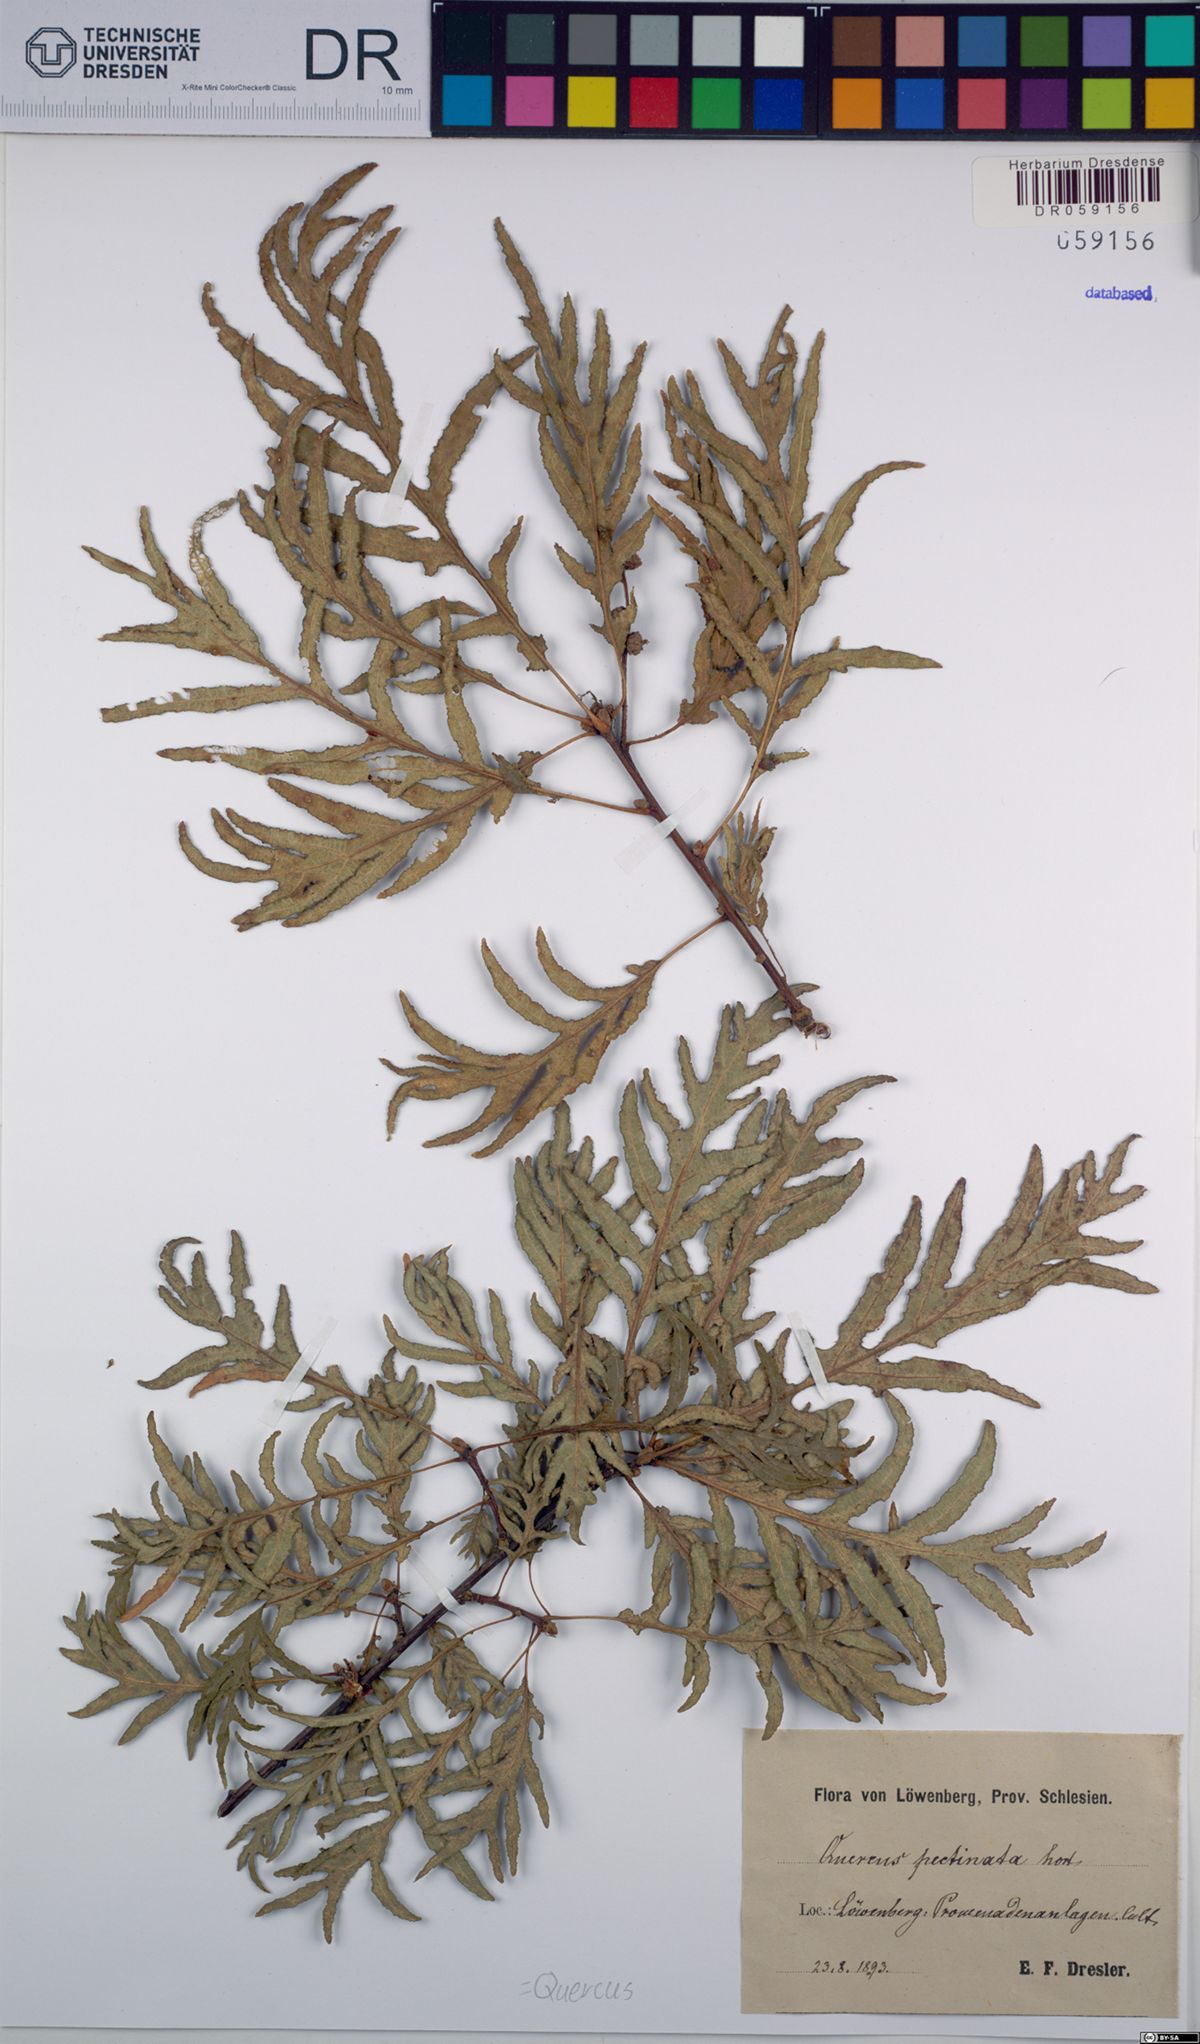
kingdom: Plantae
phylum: Tracheophyta
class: Magnoliopsida
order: Fagales
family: Fagaceae
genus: Quercus
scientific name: Quercus
